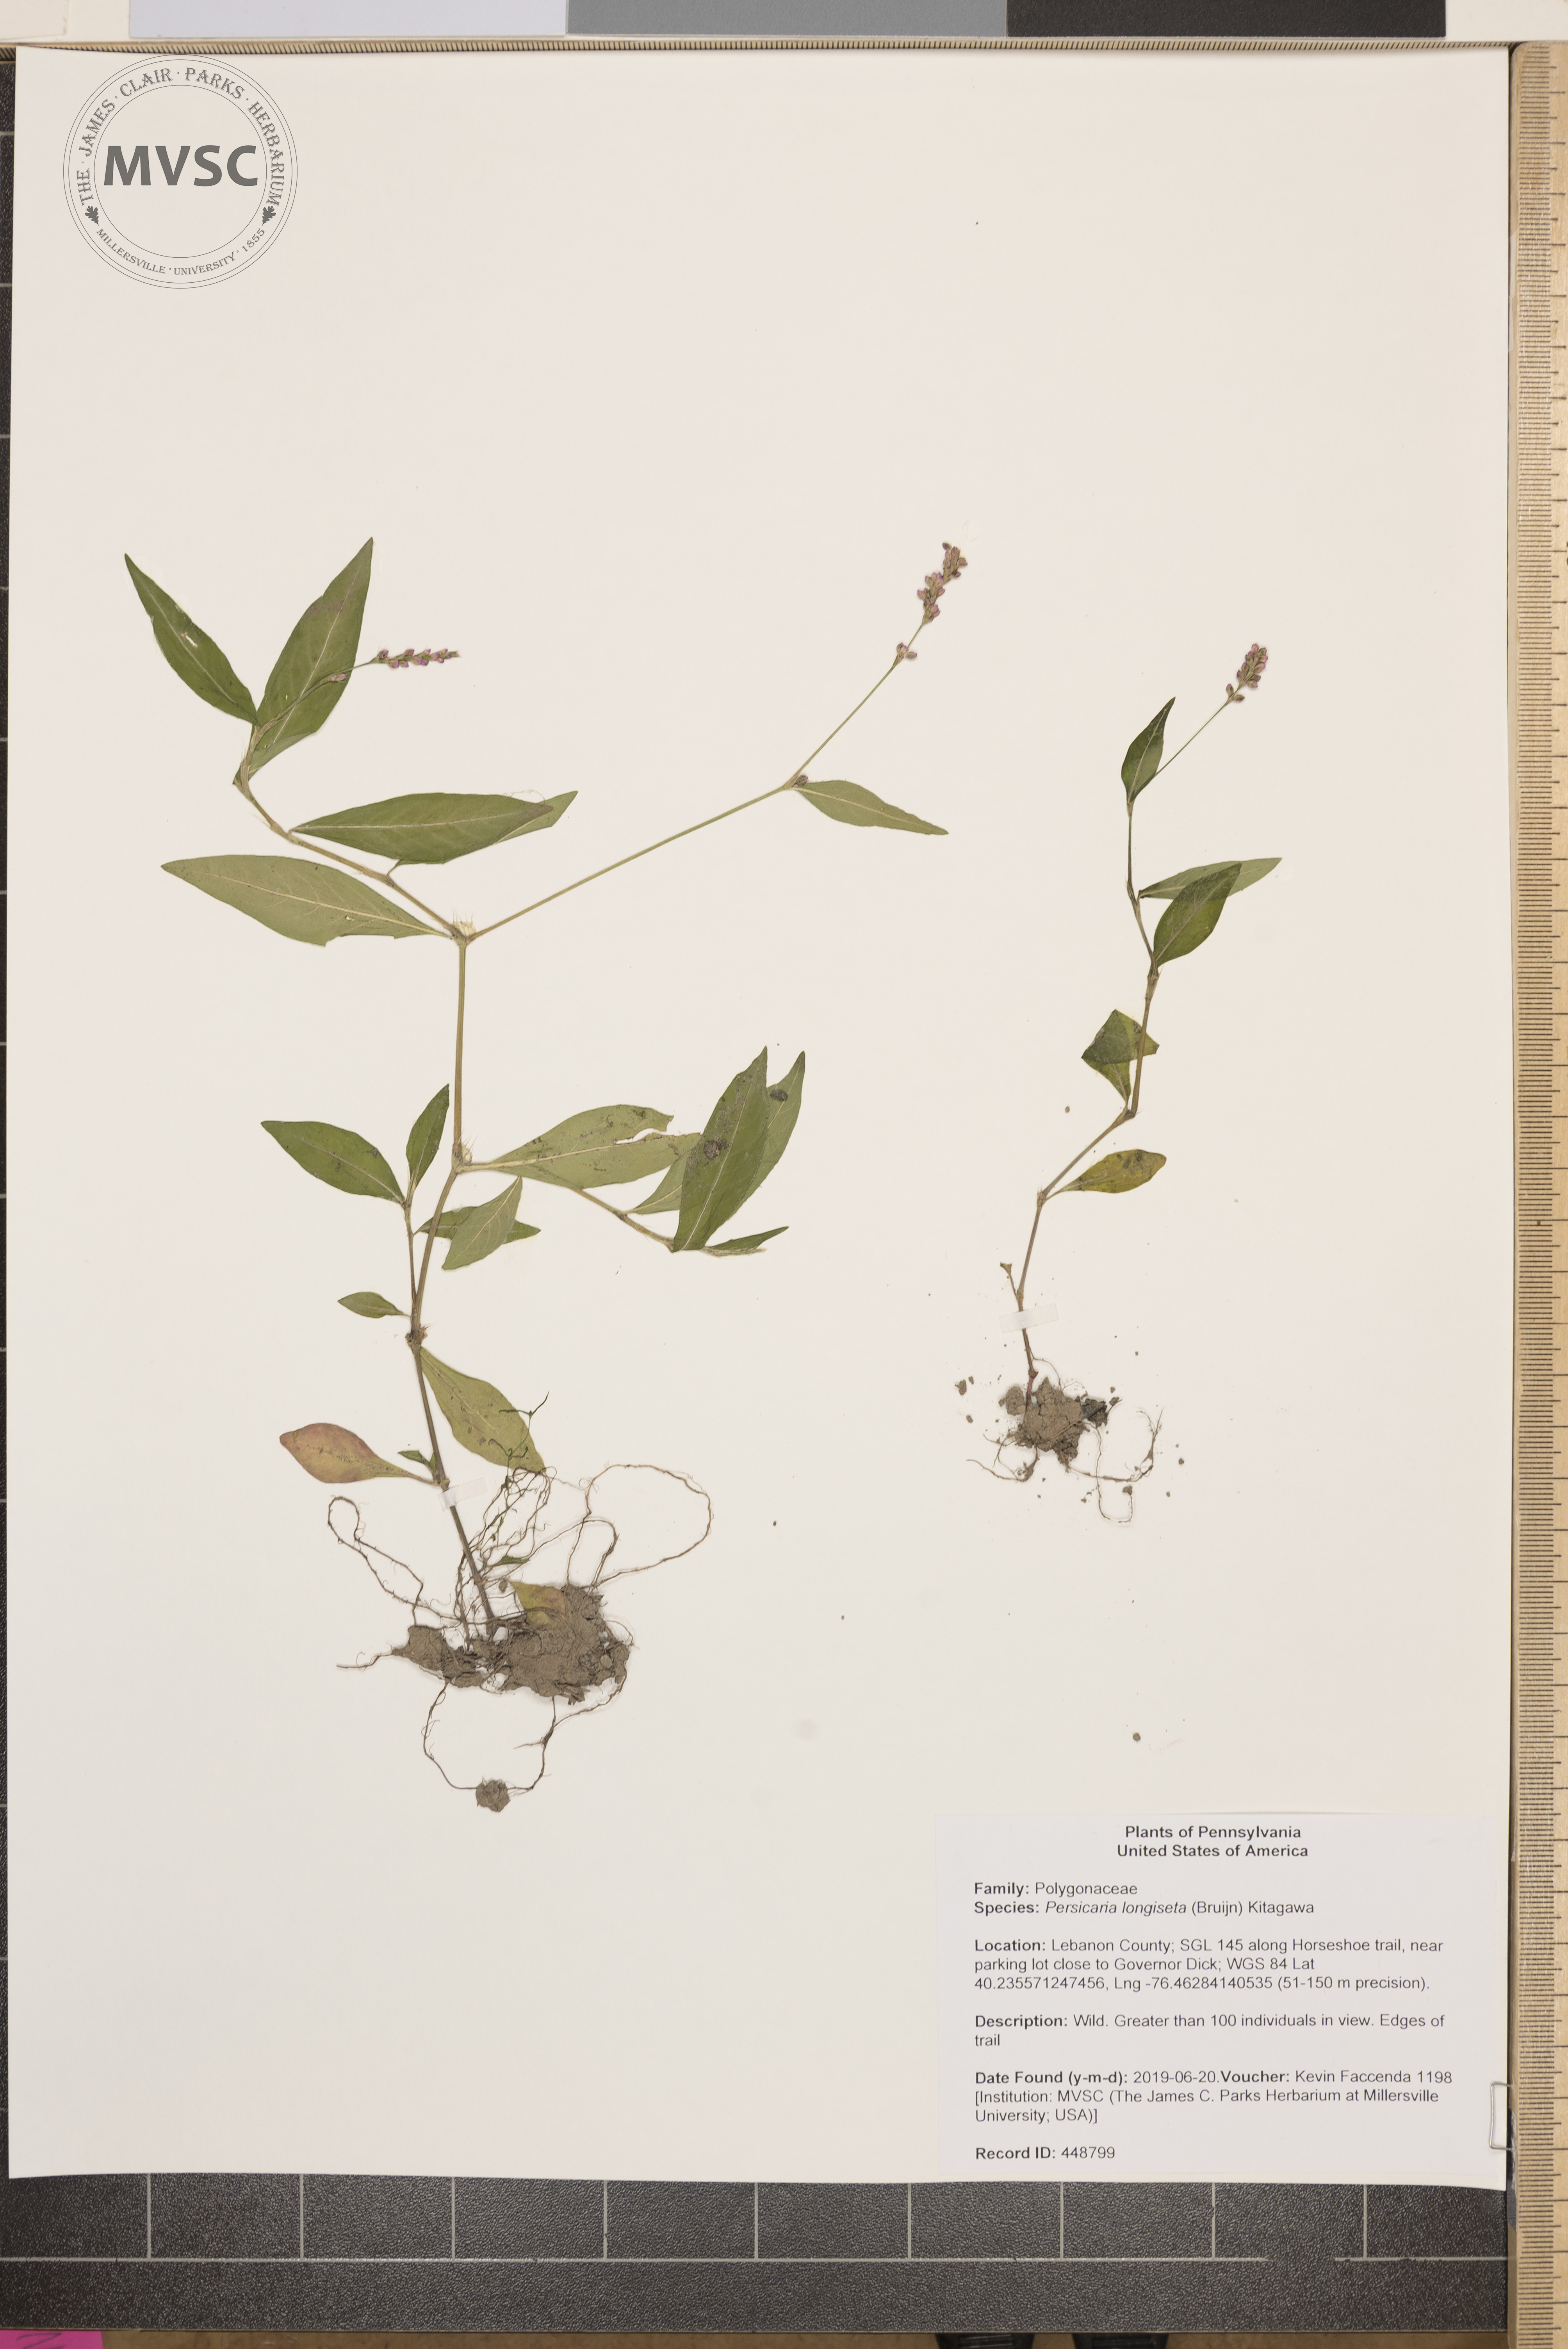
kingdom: Plantae
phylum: Tracheophyta
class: Magnoliopsida
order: Caryophyllales
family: Polygonaceae
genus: Persicaria
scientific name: Persicaria longiseta
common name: Bristly lady's-thumb
